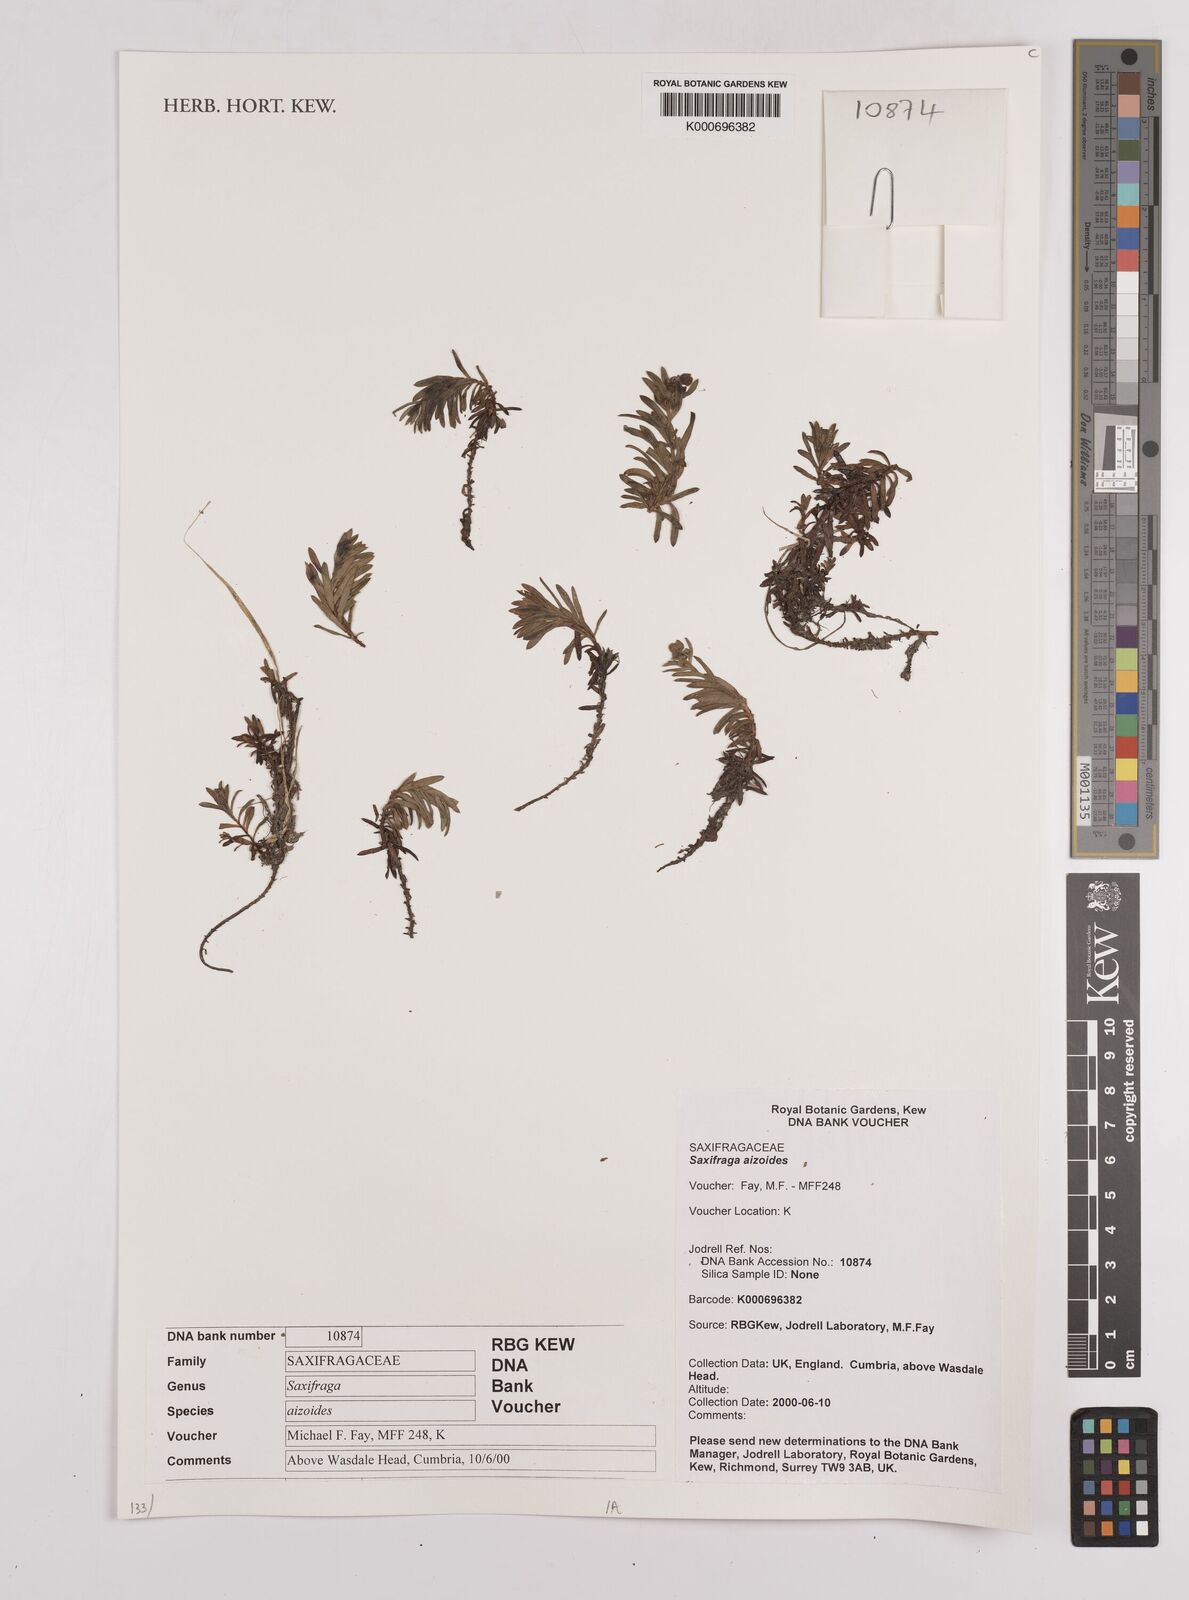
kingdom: Plantae
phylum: Tracheophyta
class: Magnoliopsida
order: Saxifragales
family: Saxifragaceae
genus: Saxifraga
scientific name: Saxifraga aizoides
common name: Yellow mountain saxifrage
